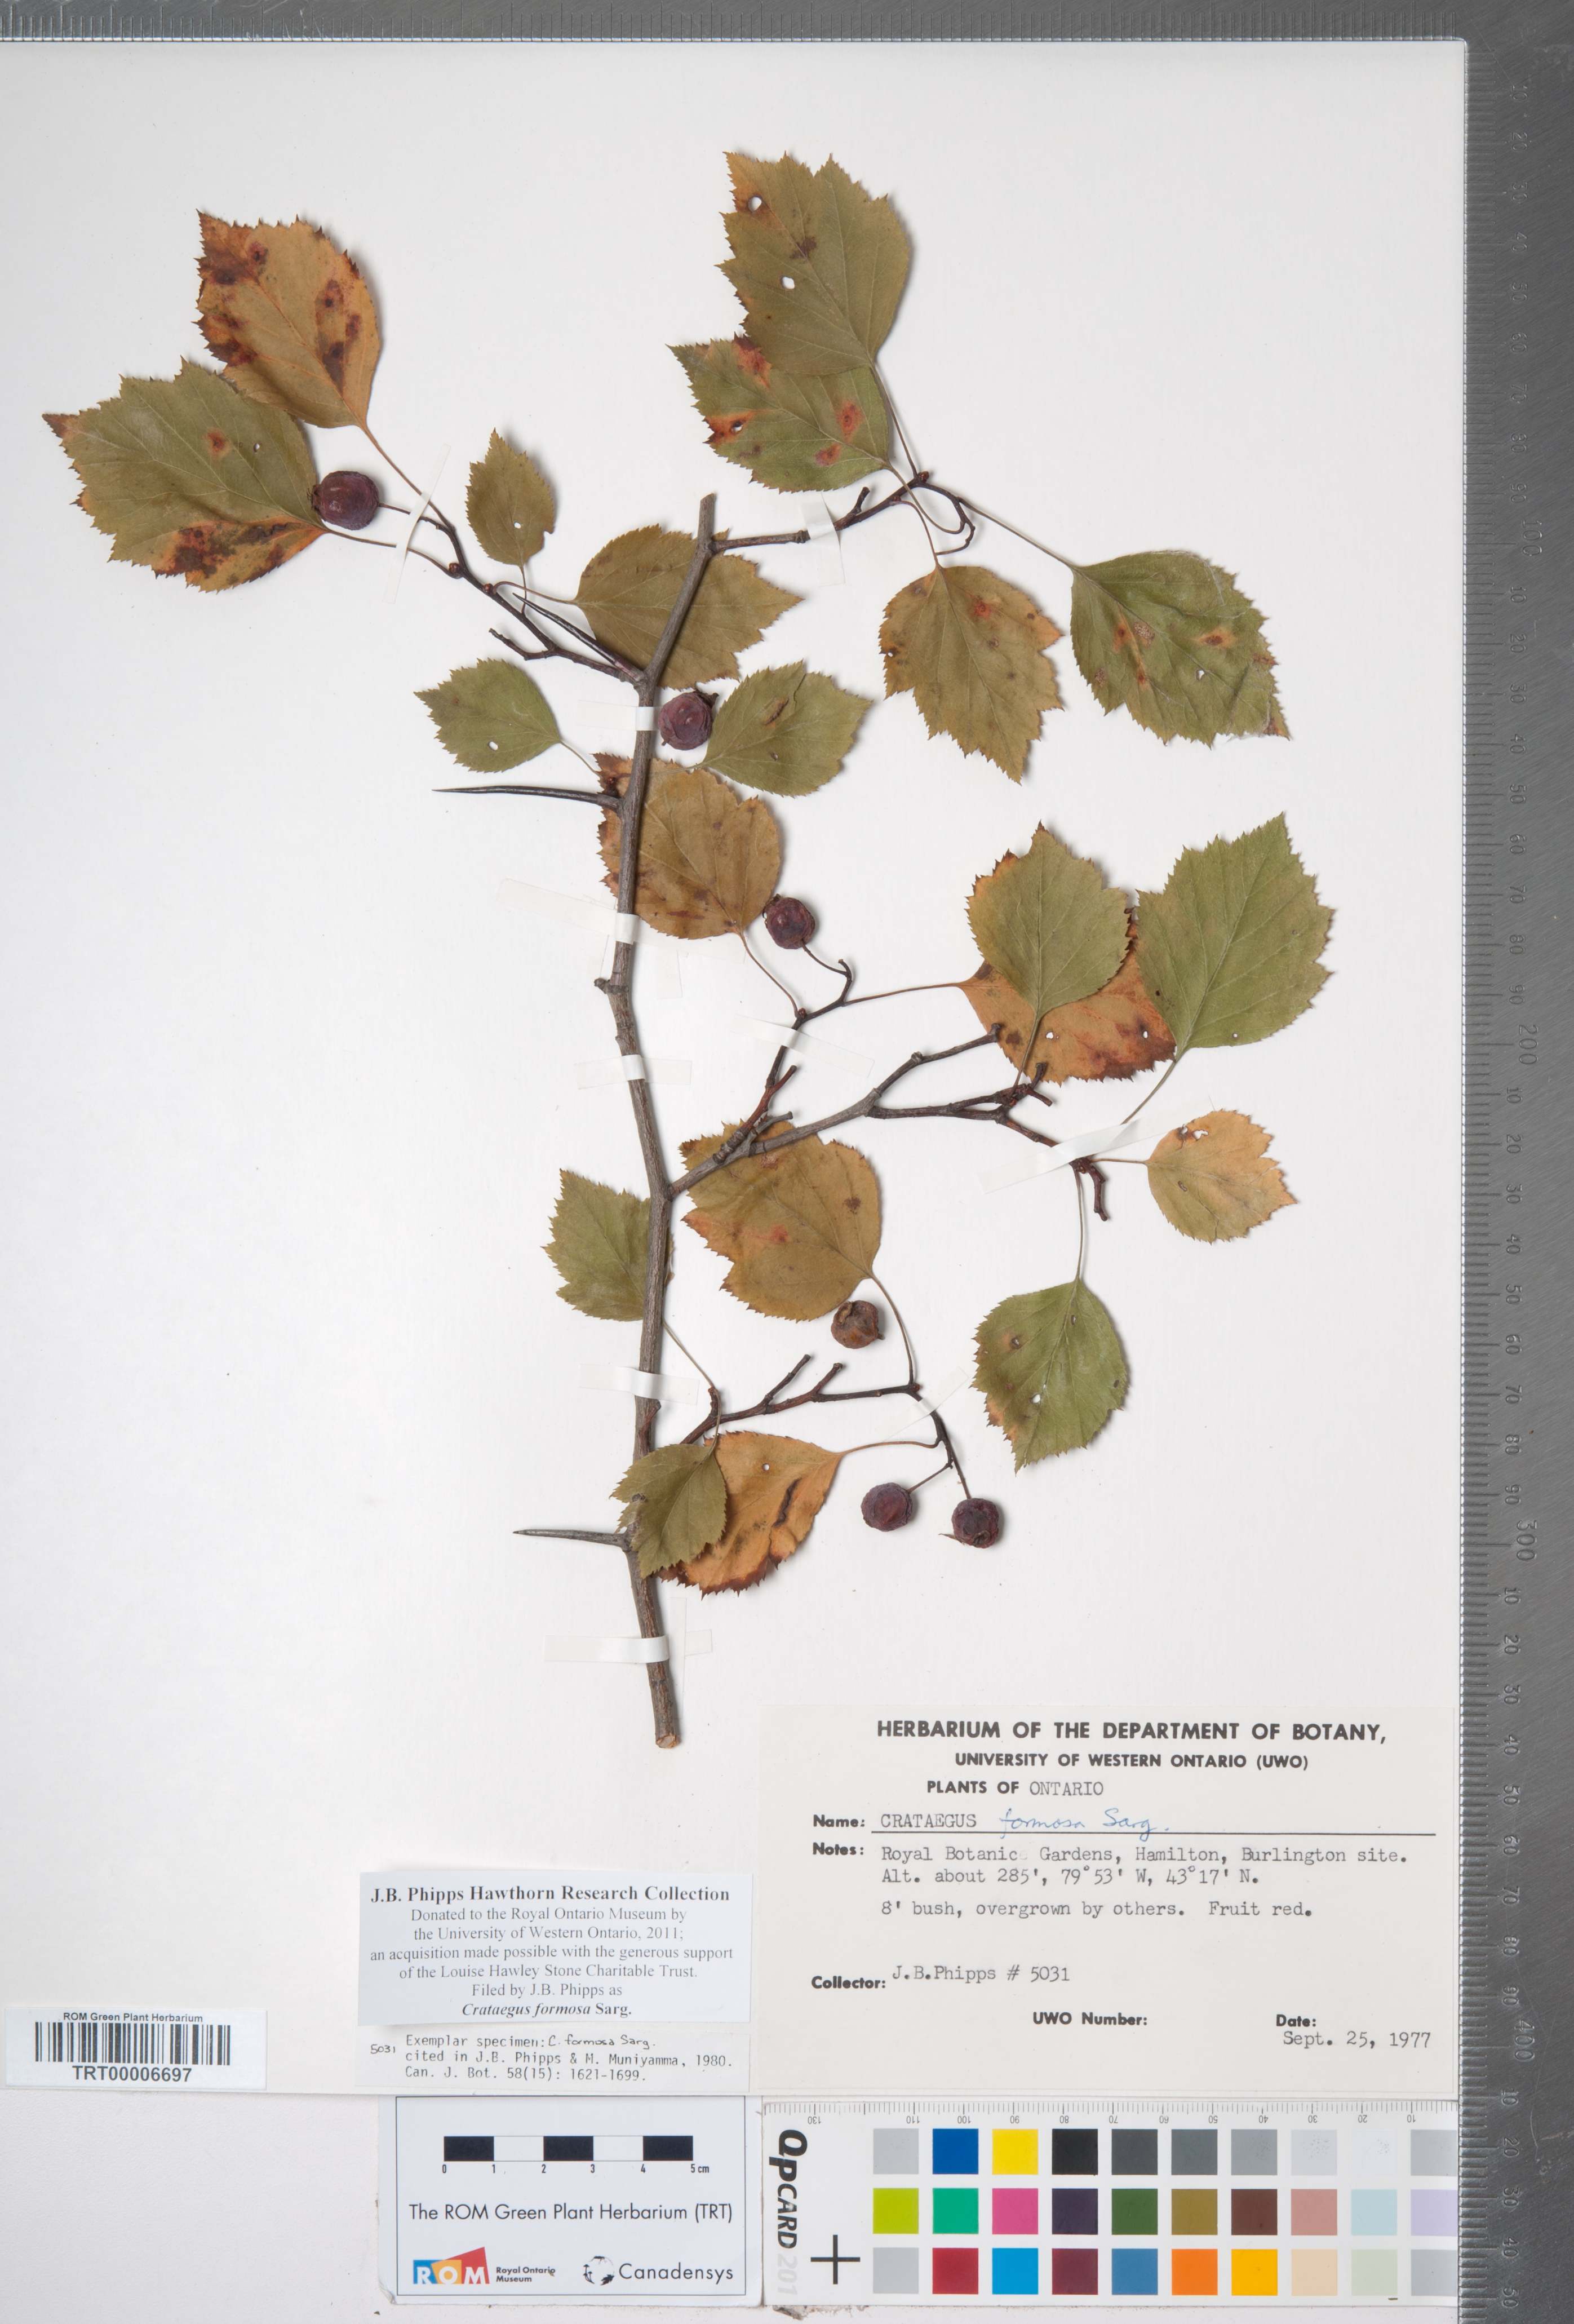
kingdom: Plantae
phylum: Tracheophyta
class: Magnoliopsida
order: Rosales
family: Rosaceae
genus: Crataegus
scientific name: Crataegus pruinosa
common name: Waxy-fruit hawthorn
